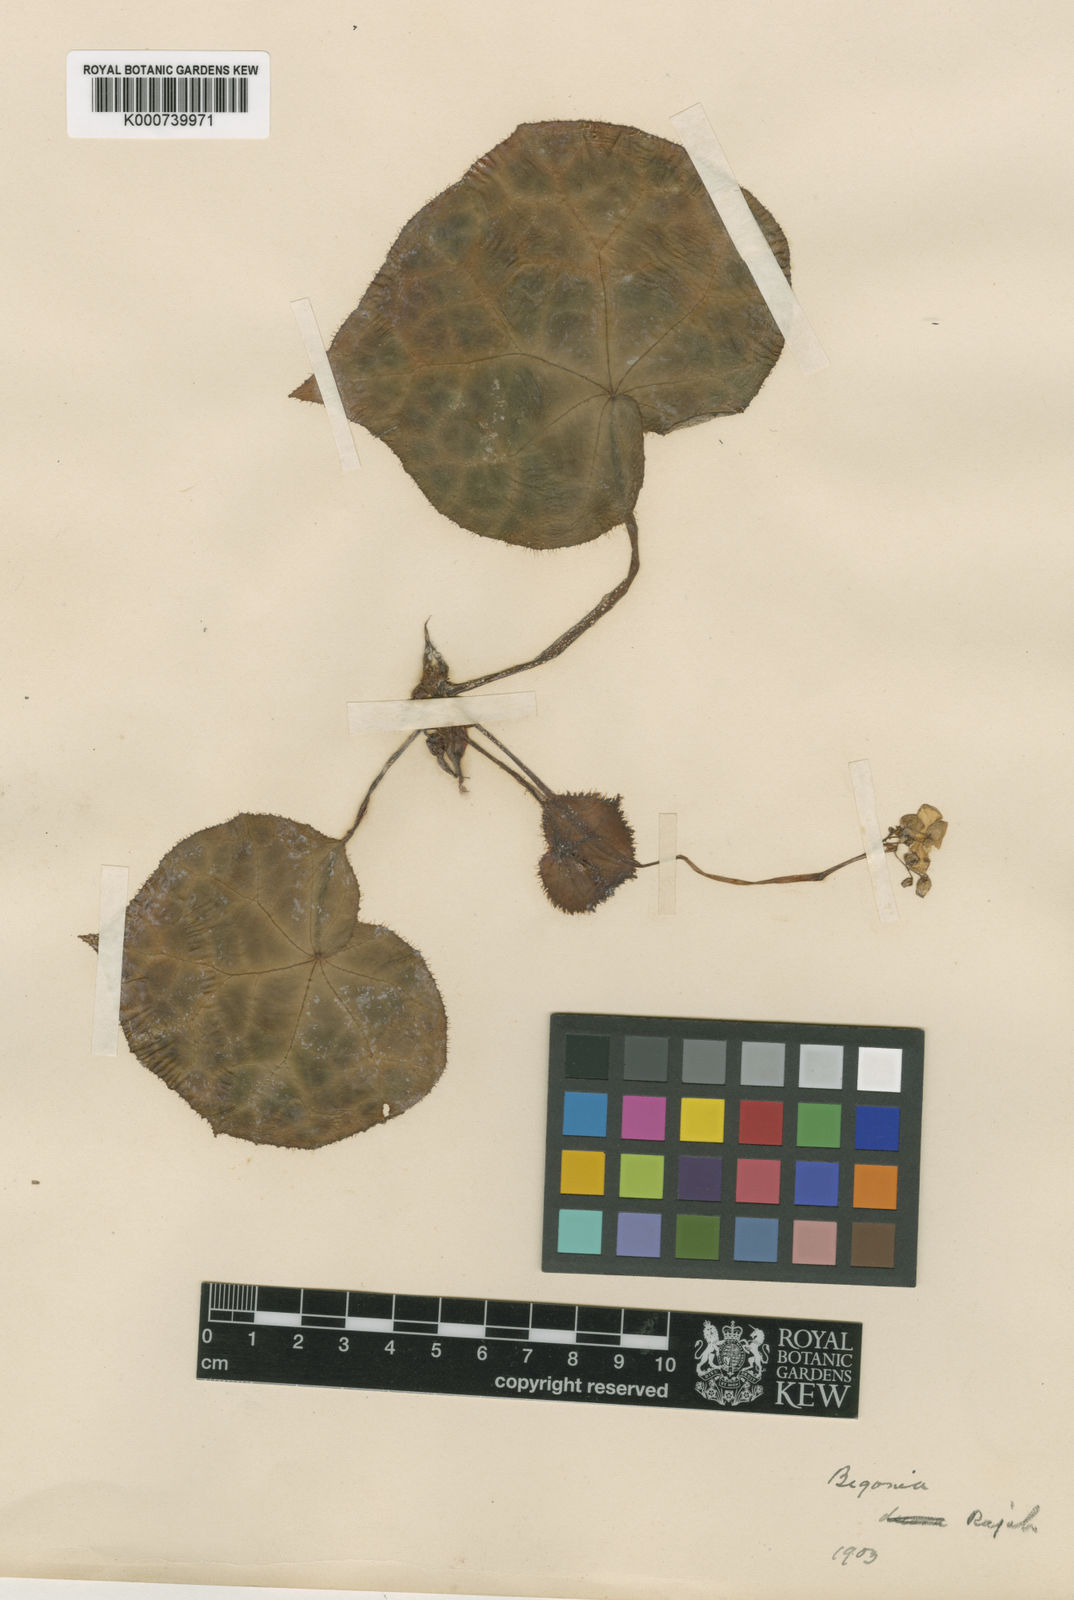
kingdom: Plantae
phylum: Tracheophyta
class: Magnoliopsida
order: Cucurbitales
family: Begoniaceae
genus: Begonia
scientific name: Begonia rajah
